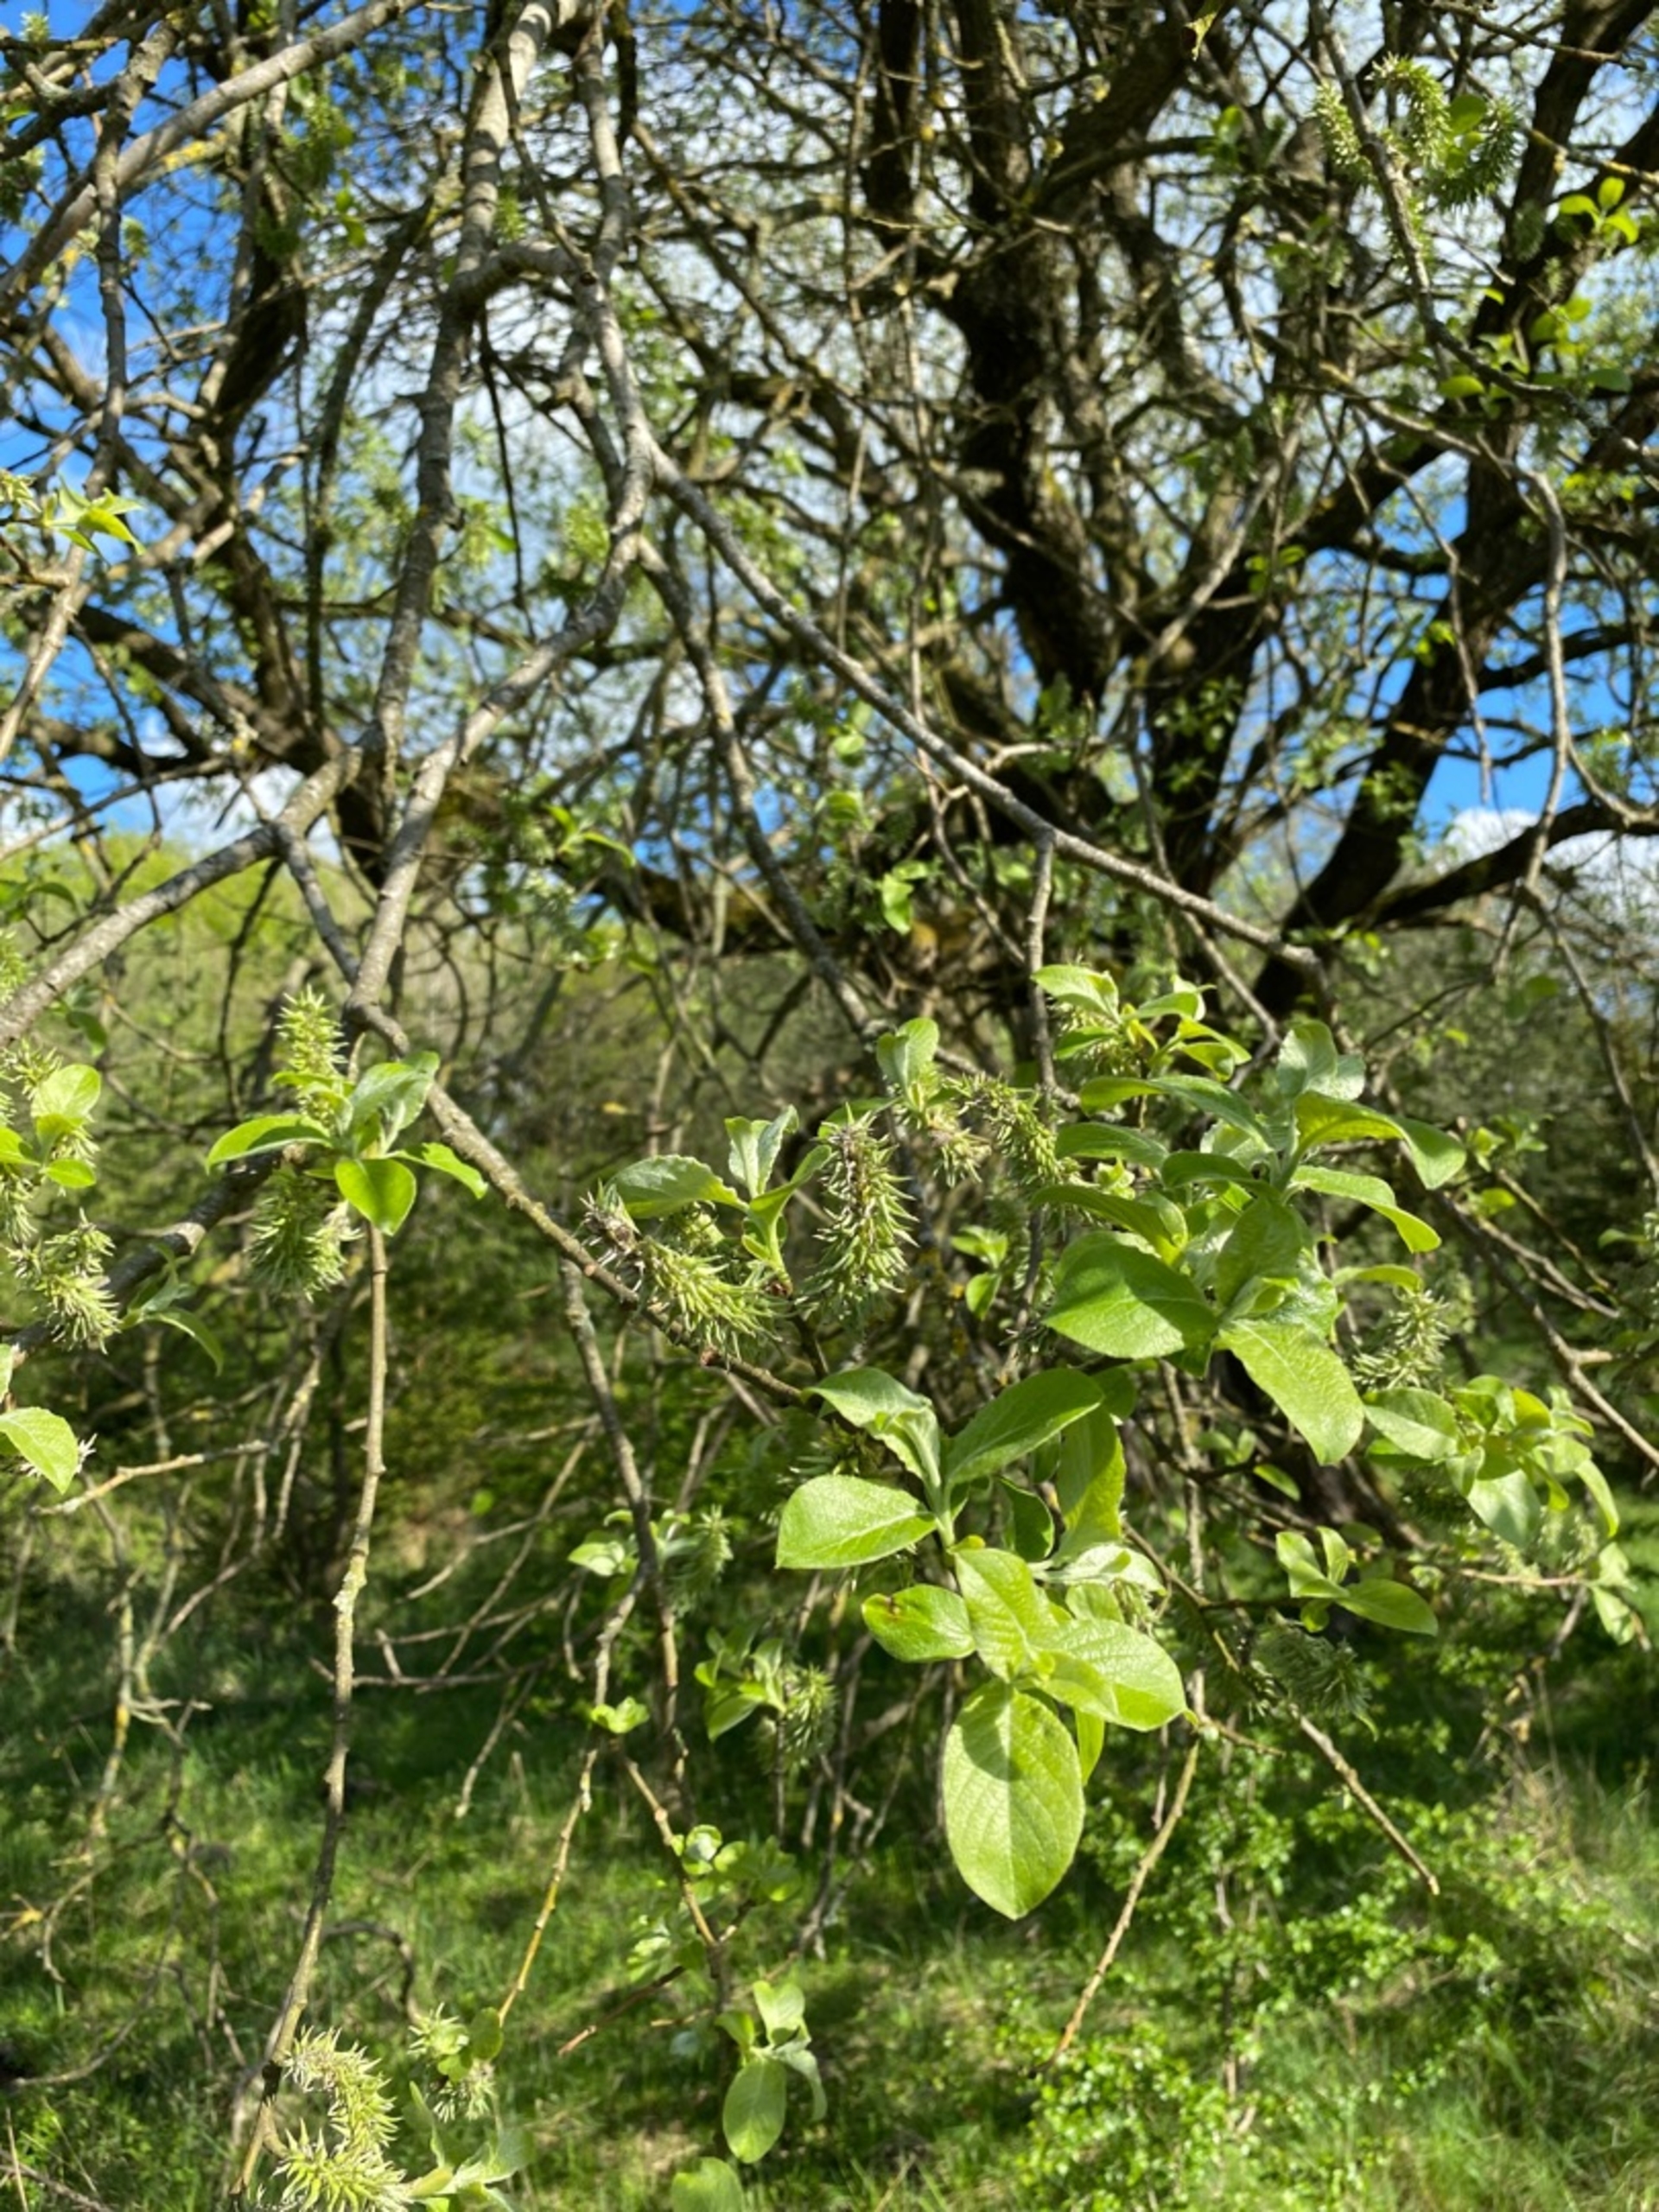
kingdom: Plantae
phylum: Tracheophyta
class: Magnoliopsida
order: Malpighiales
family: Salicaceae
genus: Salix
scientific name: Salix caprea
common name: Selje-pil
